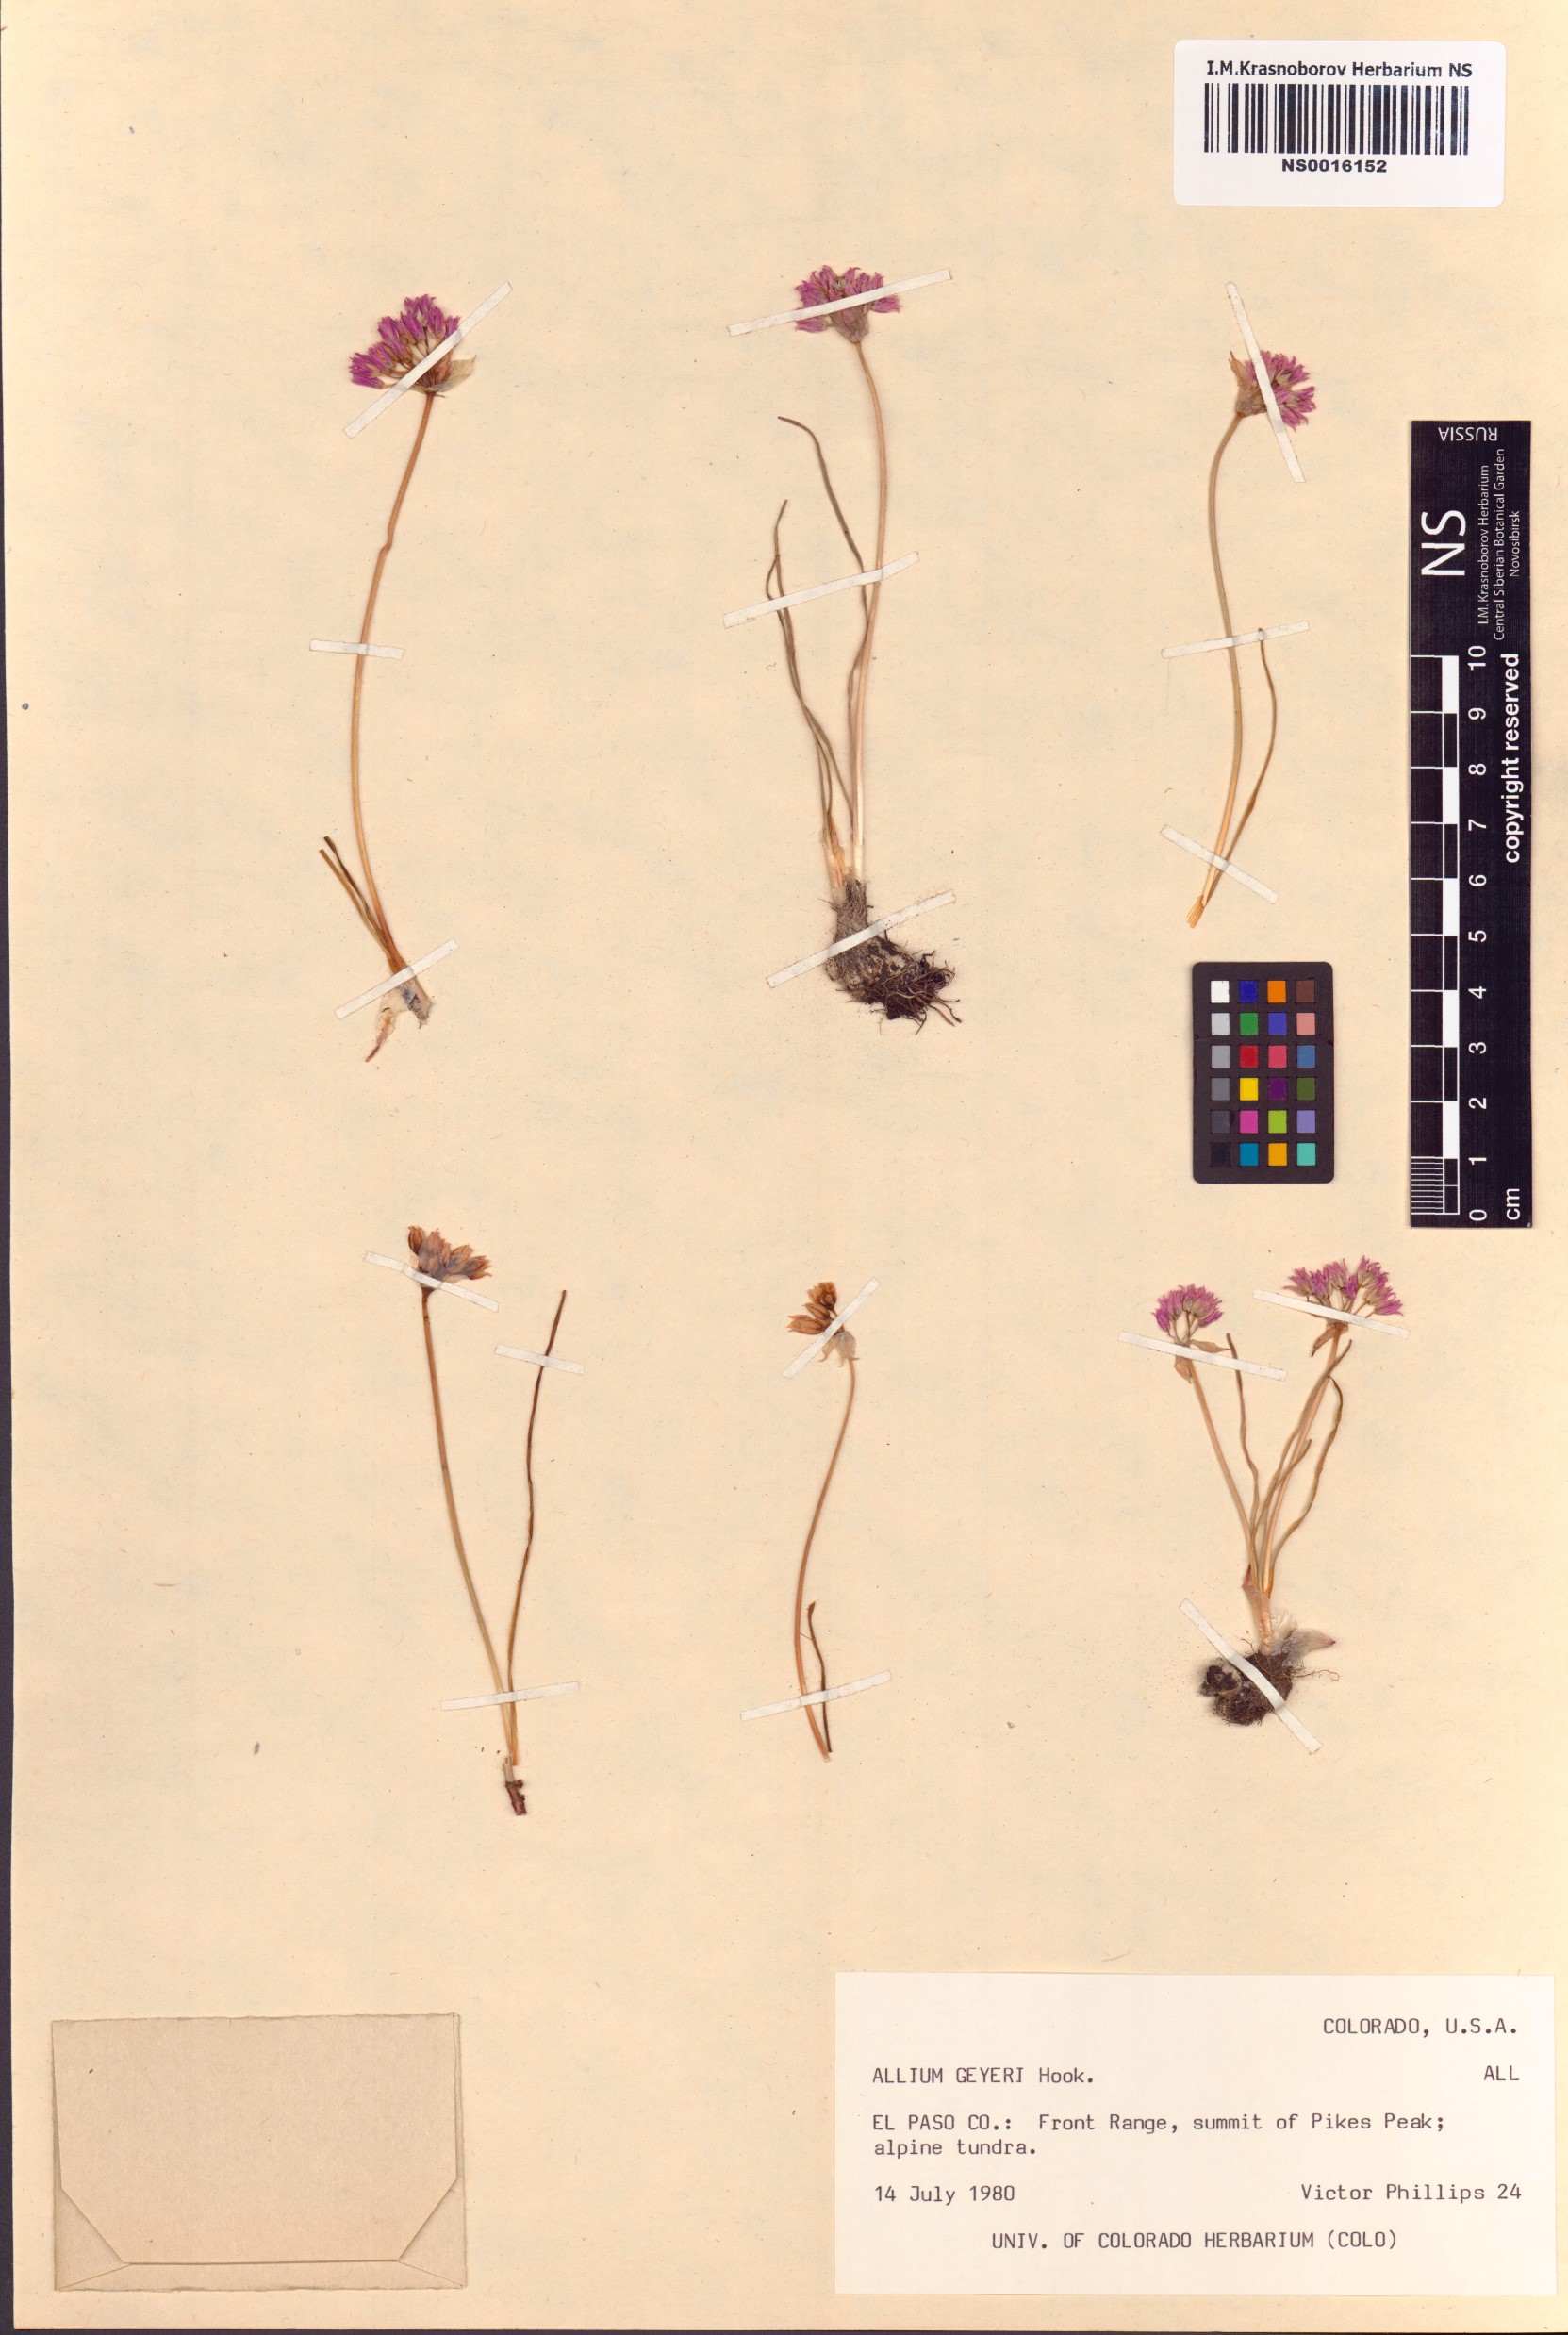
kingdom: Plantae
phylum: Tracheophyta
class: Liliopsida
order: Asparagales
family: Amaryllidaceae
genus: Allium
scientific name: Allium geyeri
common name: Geyer's onion
